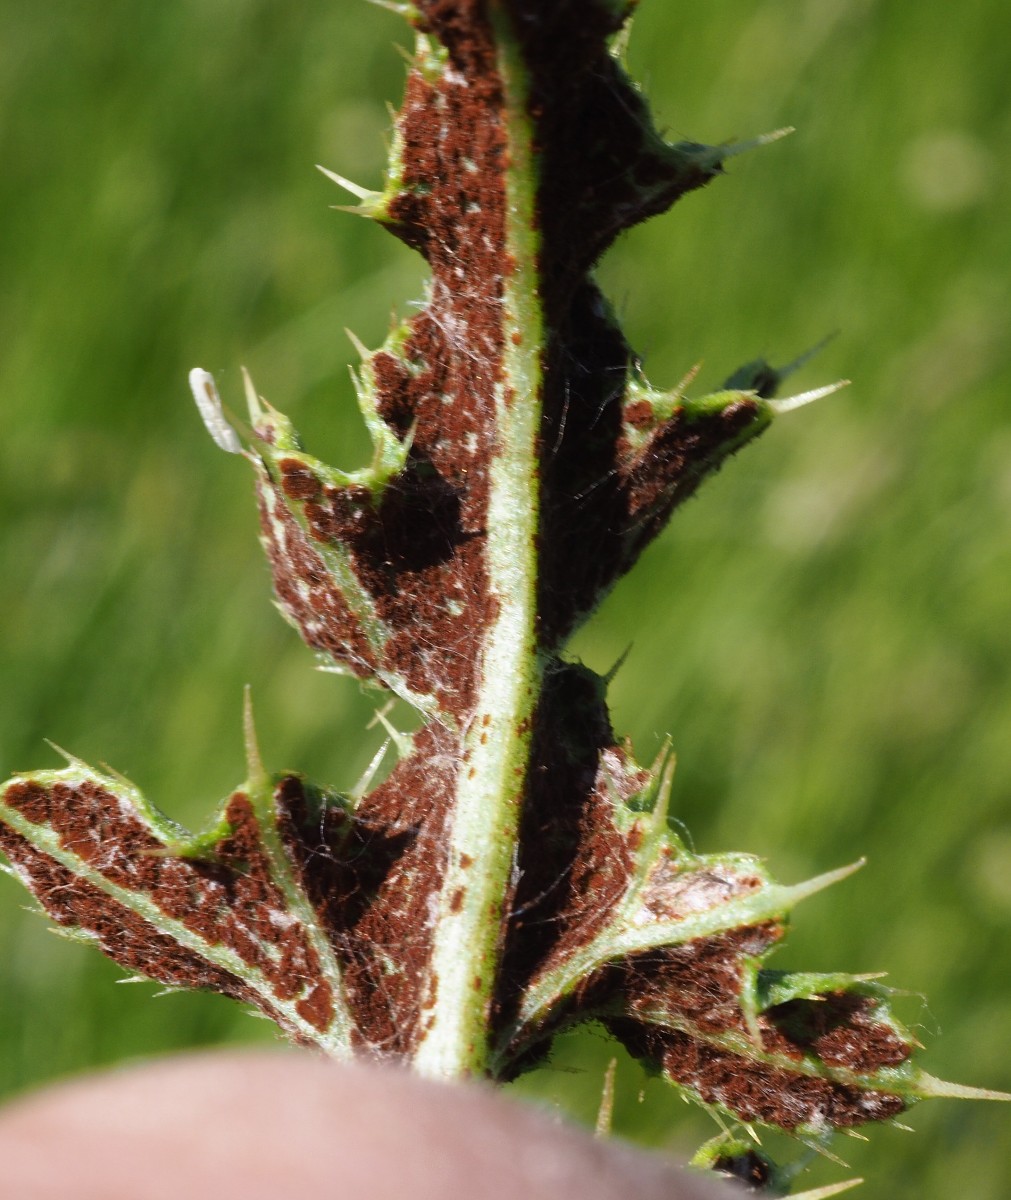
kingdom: Fungi
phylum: Basidiomycota
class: Pucciniomycetes
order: Pucciniales
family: Pucciniaceae
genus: Puccinia
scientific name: Puccinia suaveolens
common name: tidsel-tvecellerust
